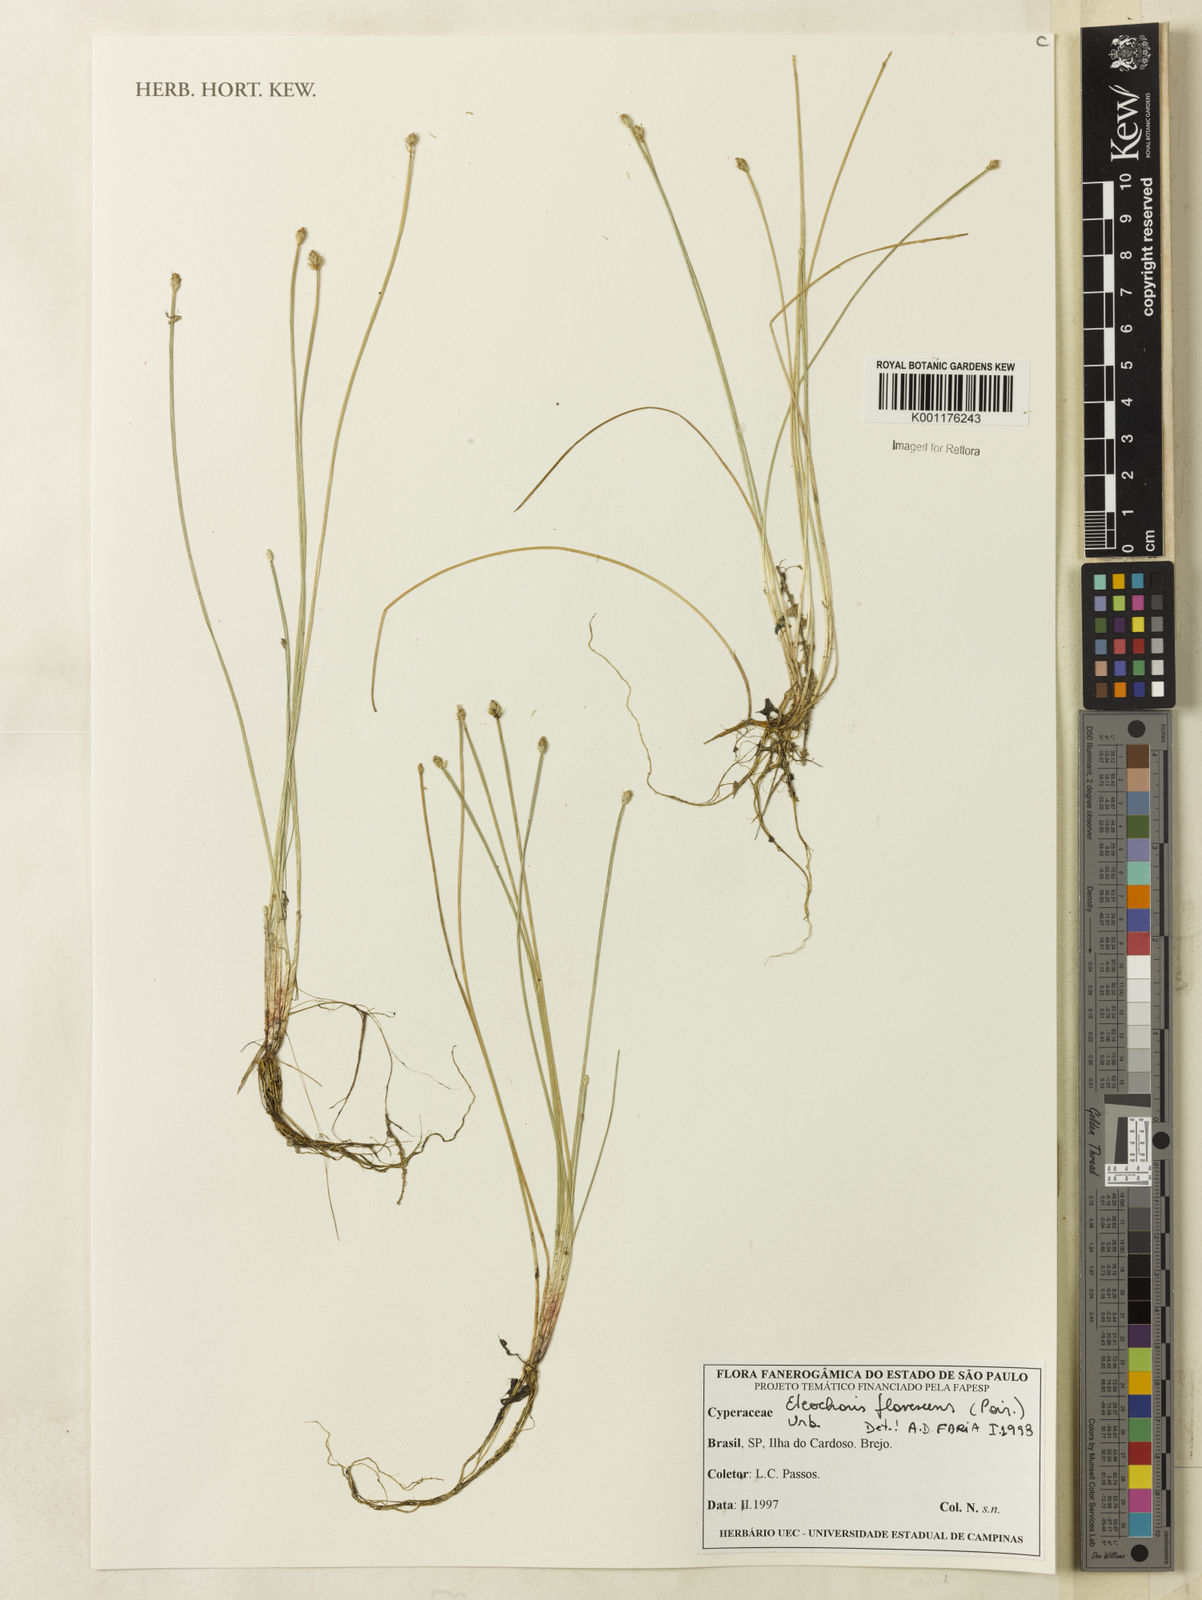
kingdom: Plantae
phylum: Tracheophyta
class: Liliopsida
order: Poales
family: Cyperaceae
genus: Eleocharis
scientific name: Eleocharis flavescens
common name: Yellow spikerush
